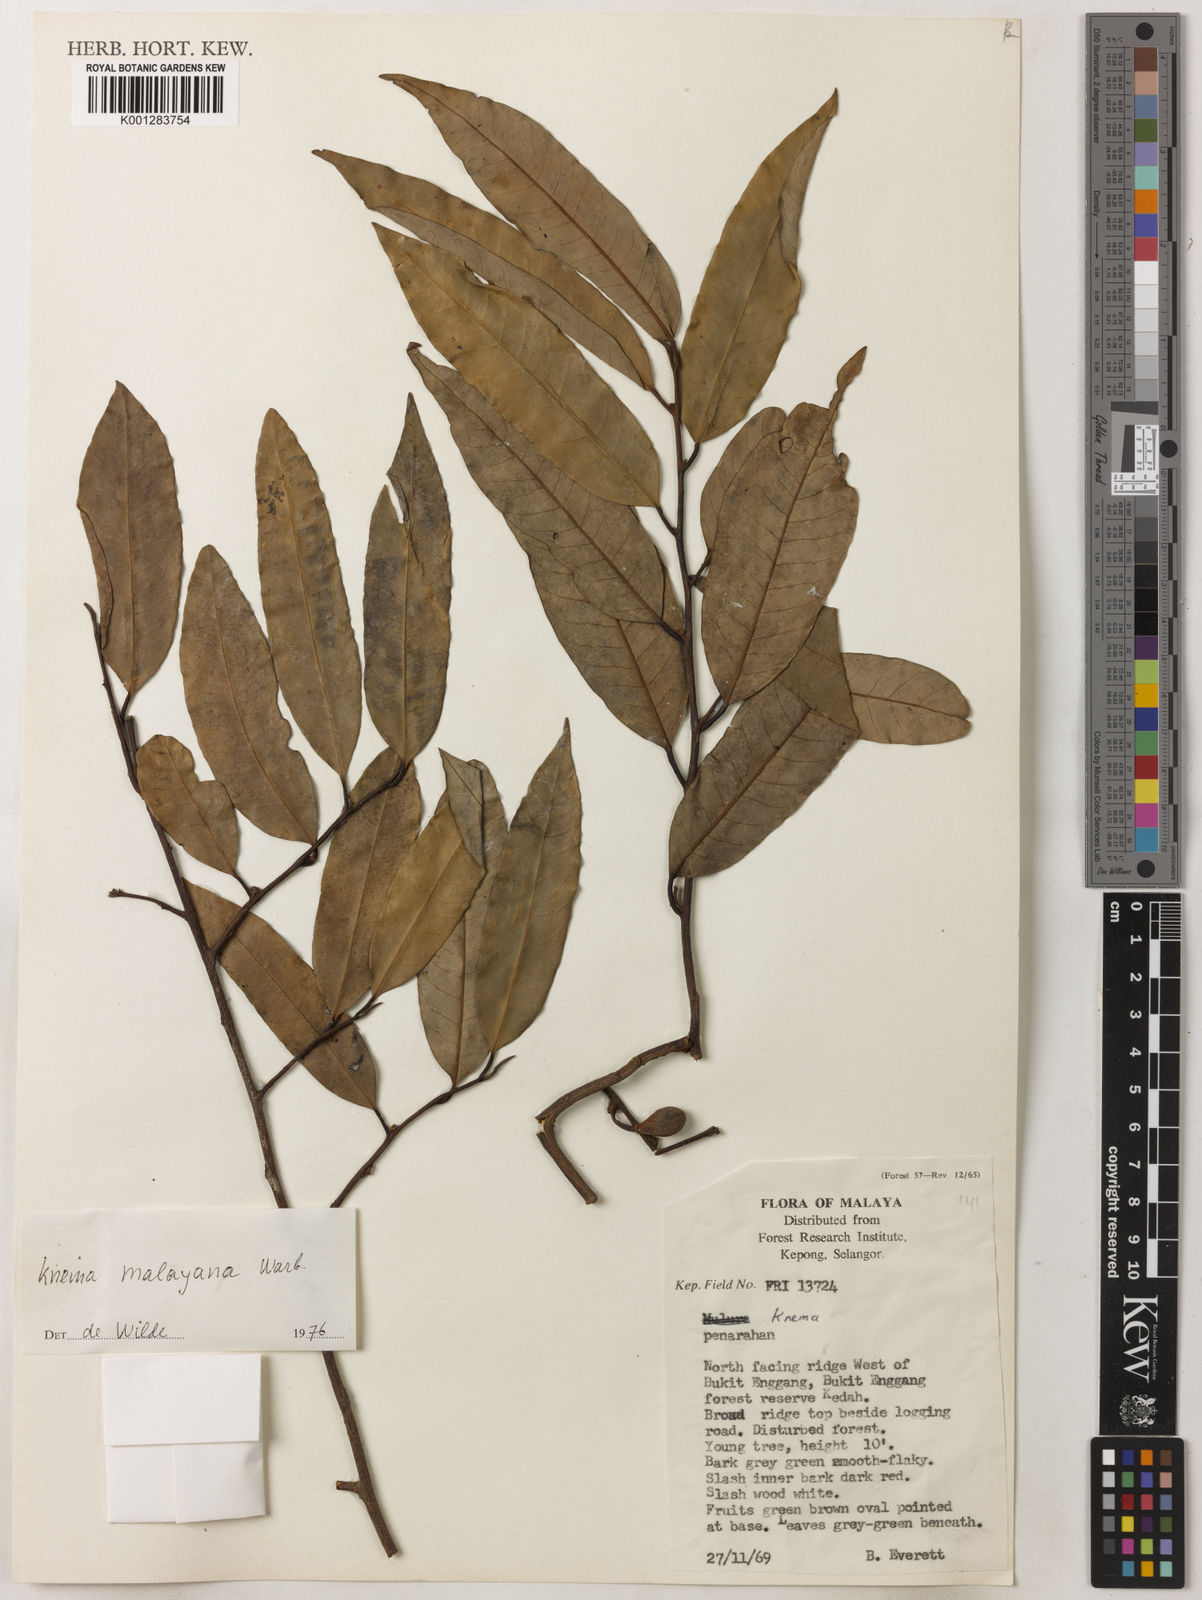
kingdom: Plantae
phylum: Tracheophyta
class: Magnoliopsida
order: Magnoliales
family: Myristicaceae
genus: Knema
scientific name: Knema malayana
